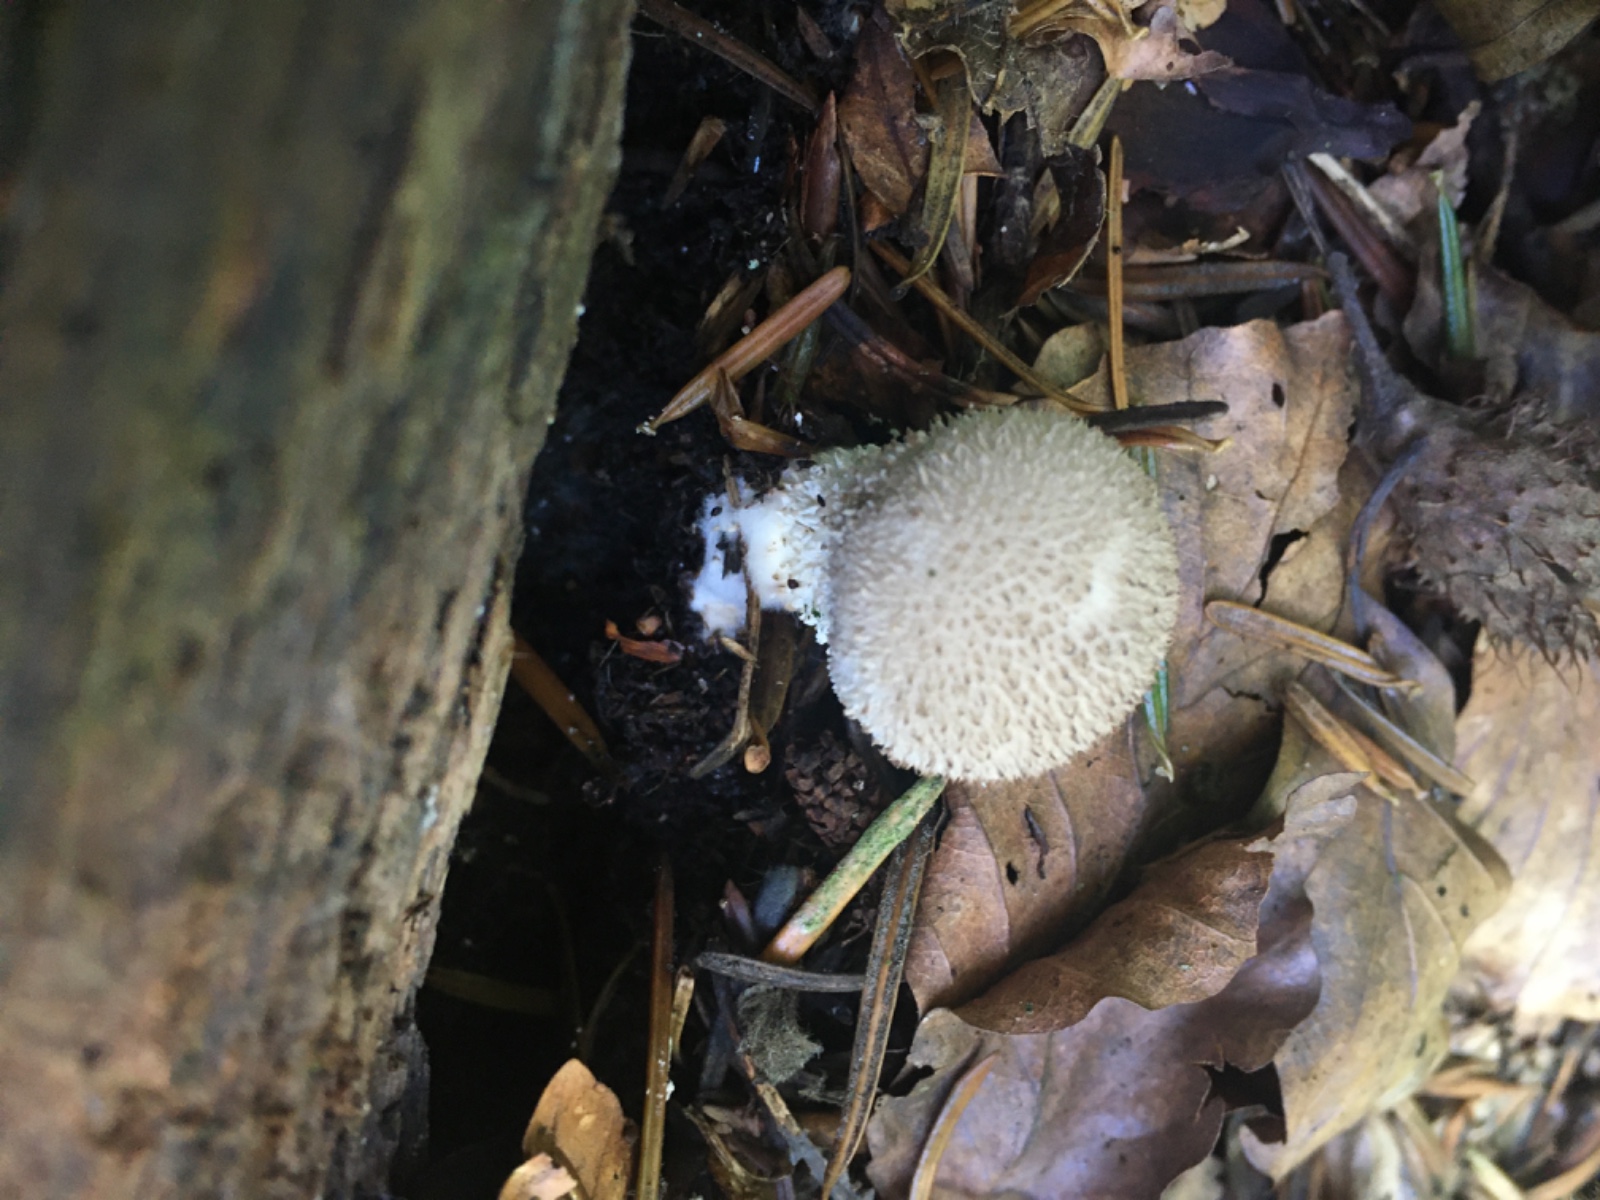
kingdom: Fungi
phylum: Basidiomycota
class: Agaricomycetes
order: Agaricales
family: Agaricaceae
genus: Lycoperdon
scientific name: Lycoperdon
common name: støvbold
